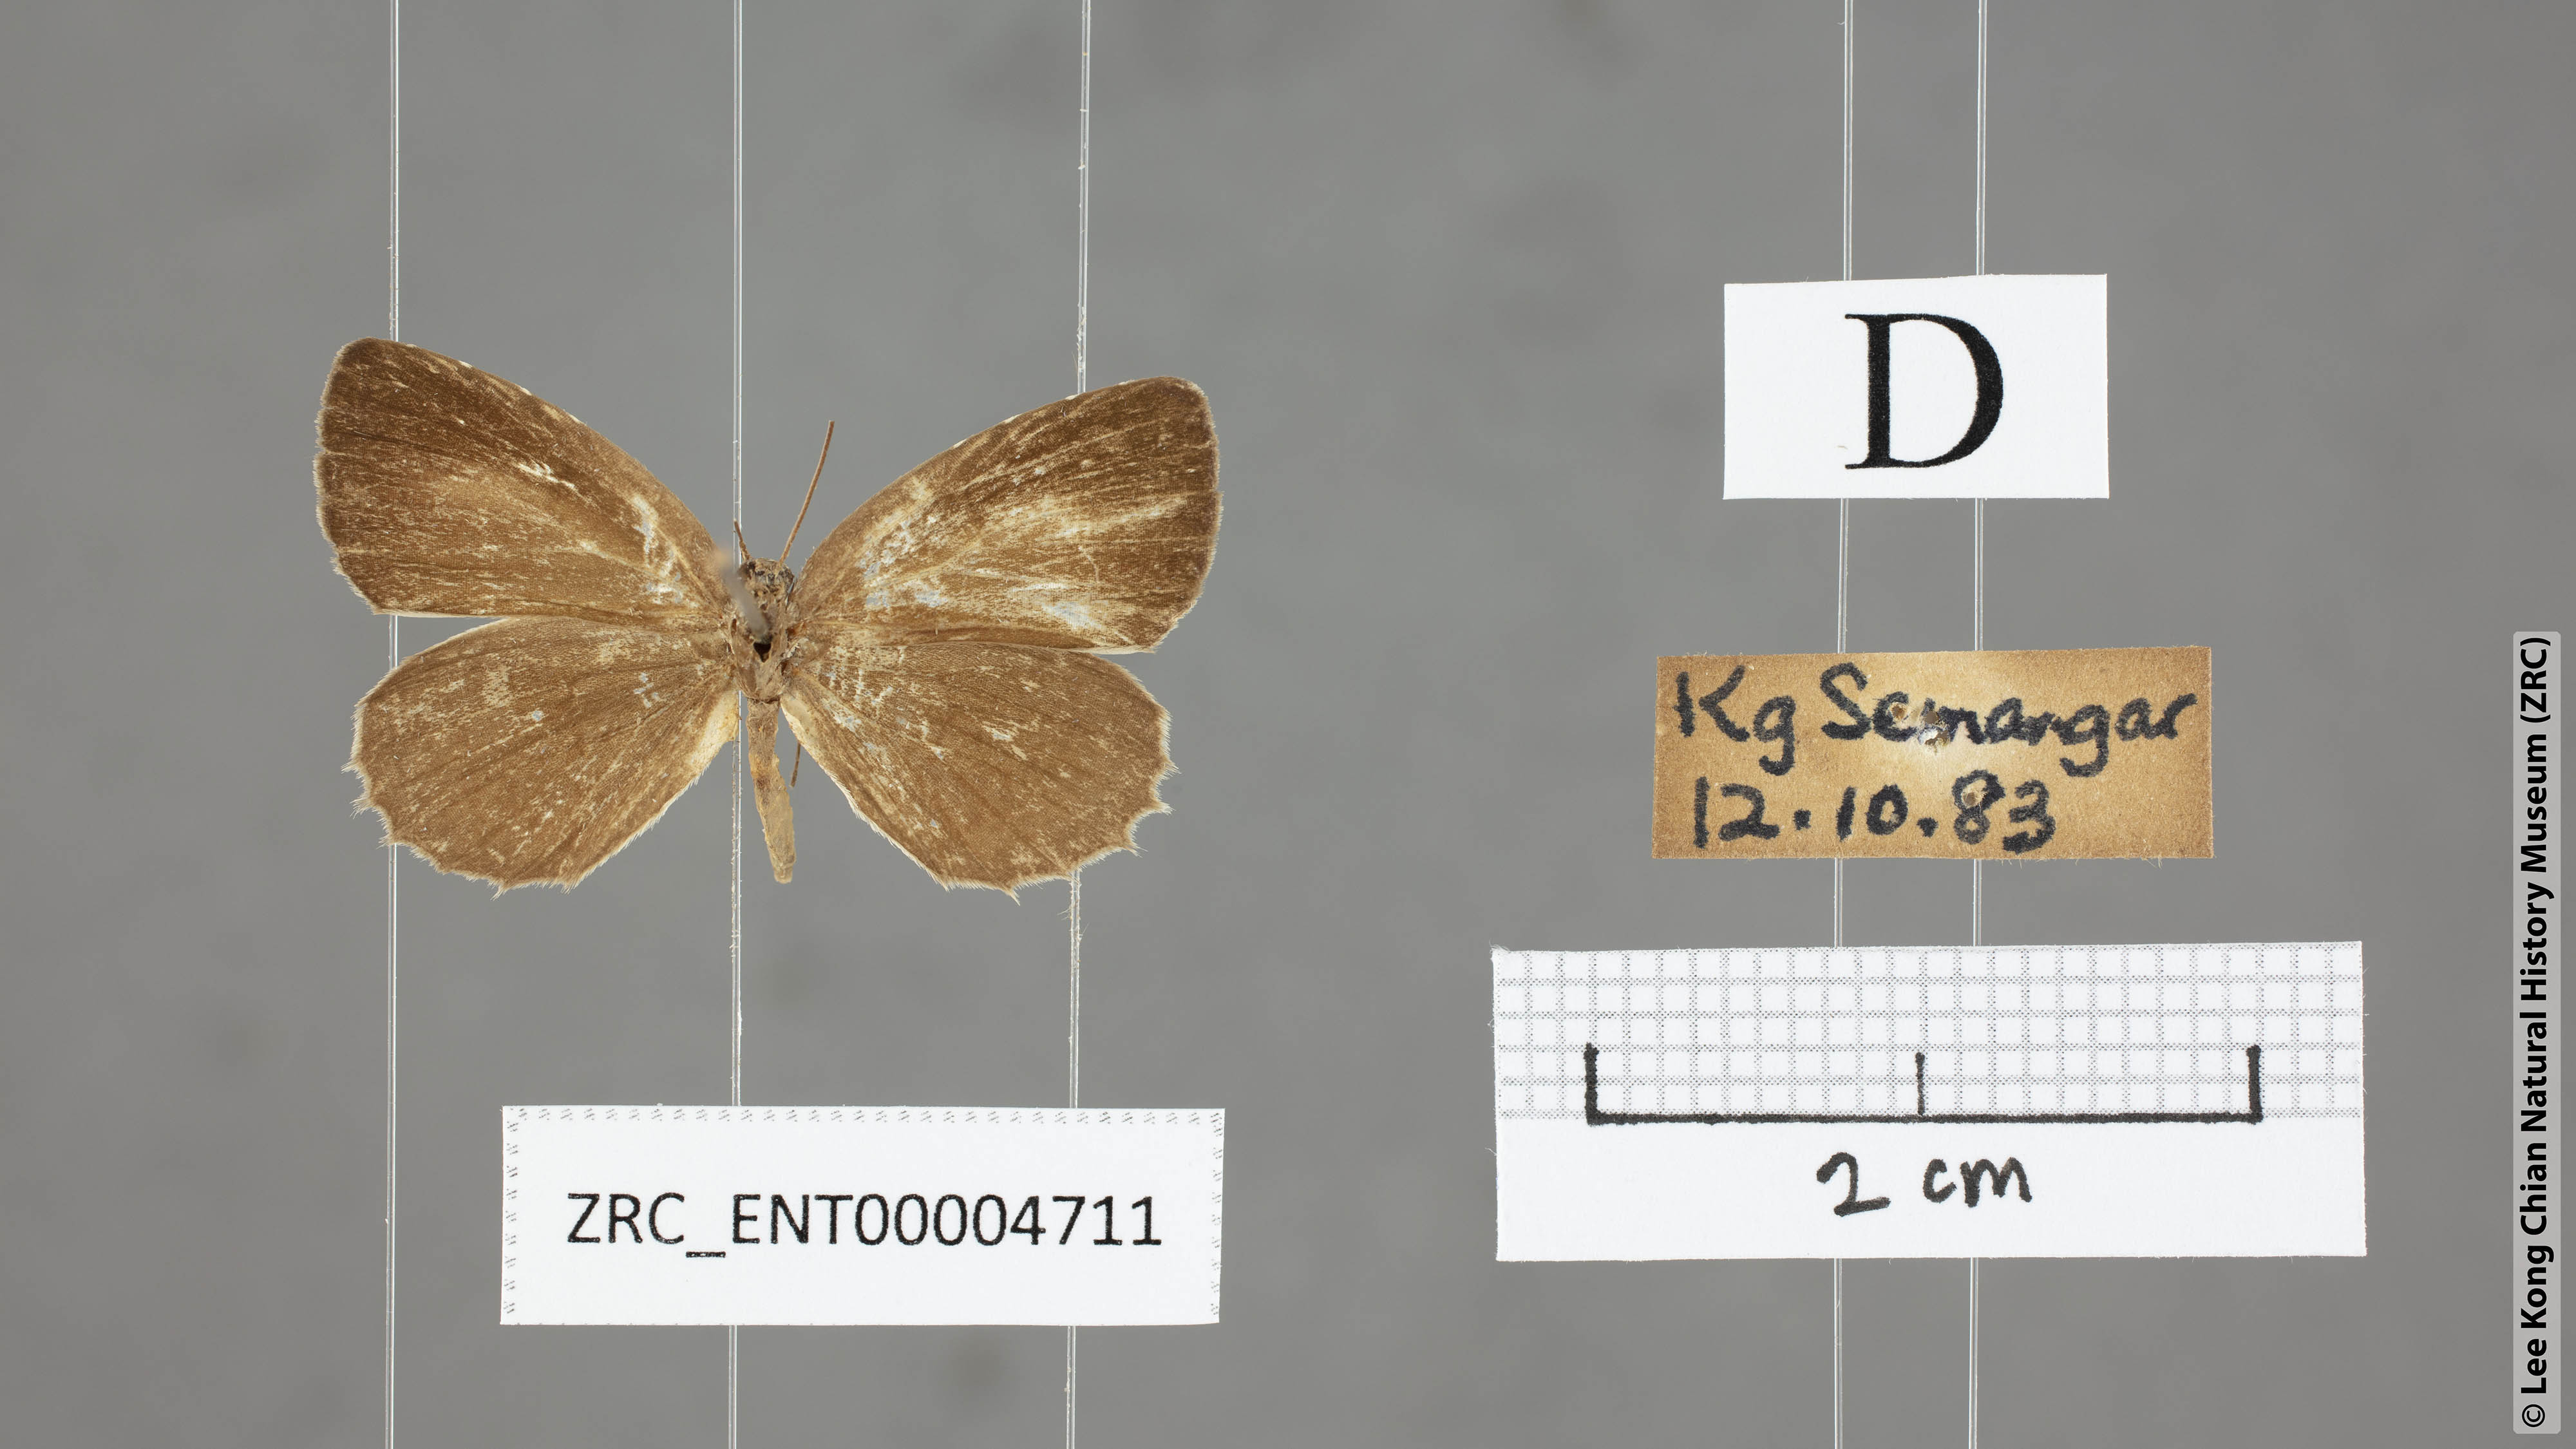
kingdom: Animalia
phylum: Arthropoda
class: Insecta
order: Lepidoptera
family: Lycaenidae
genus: Allotinus
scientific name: Allotinus unicolor
